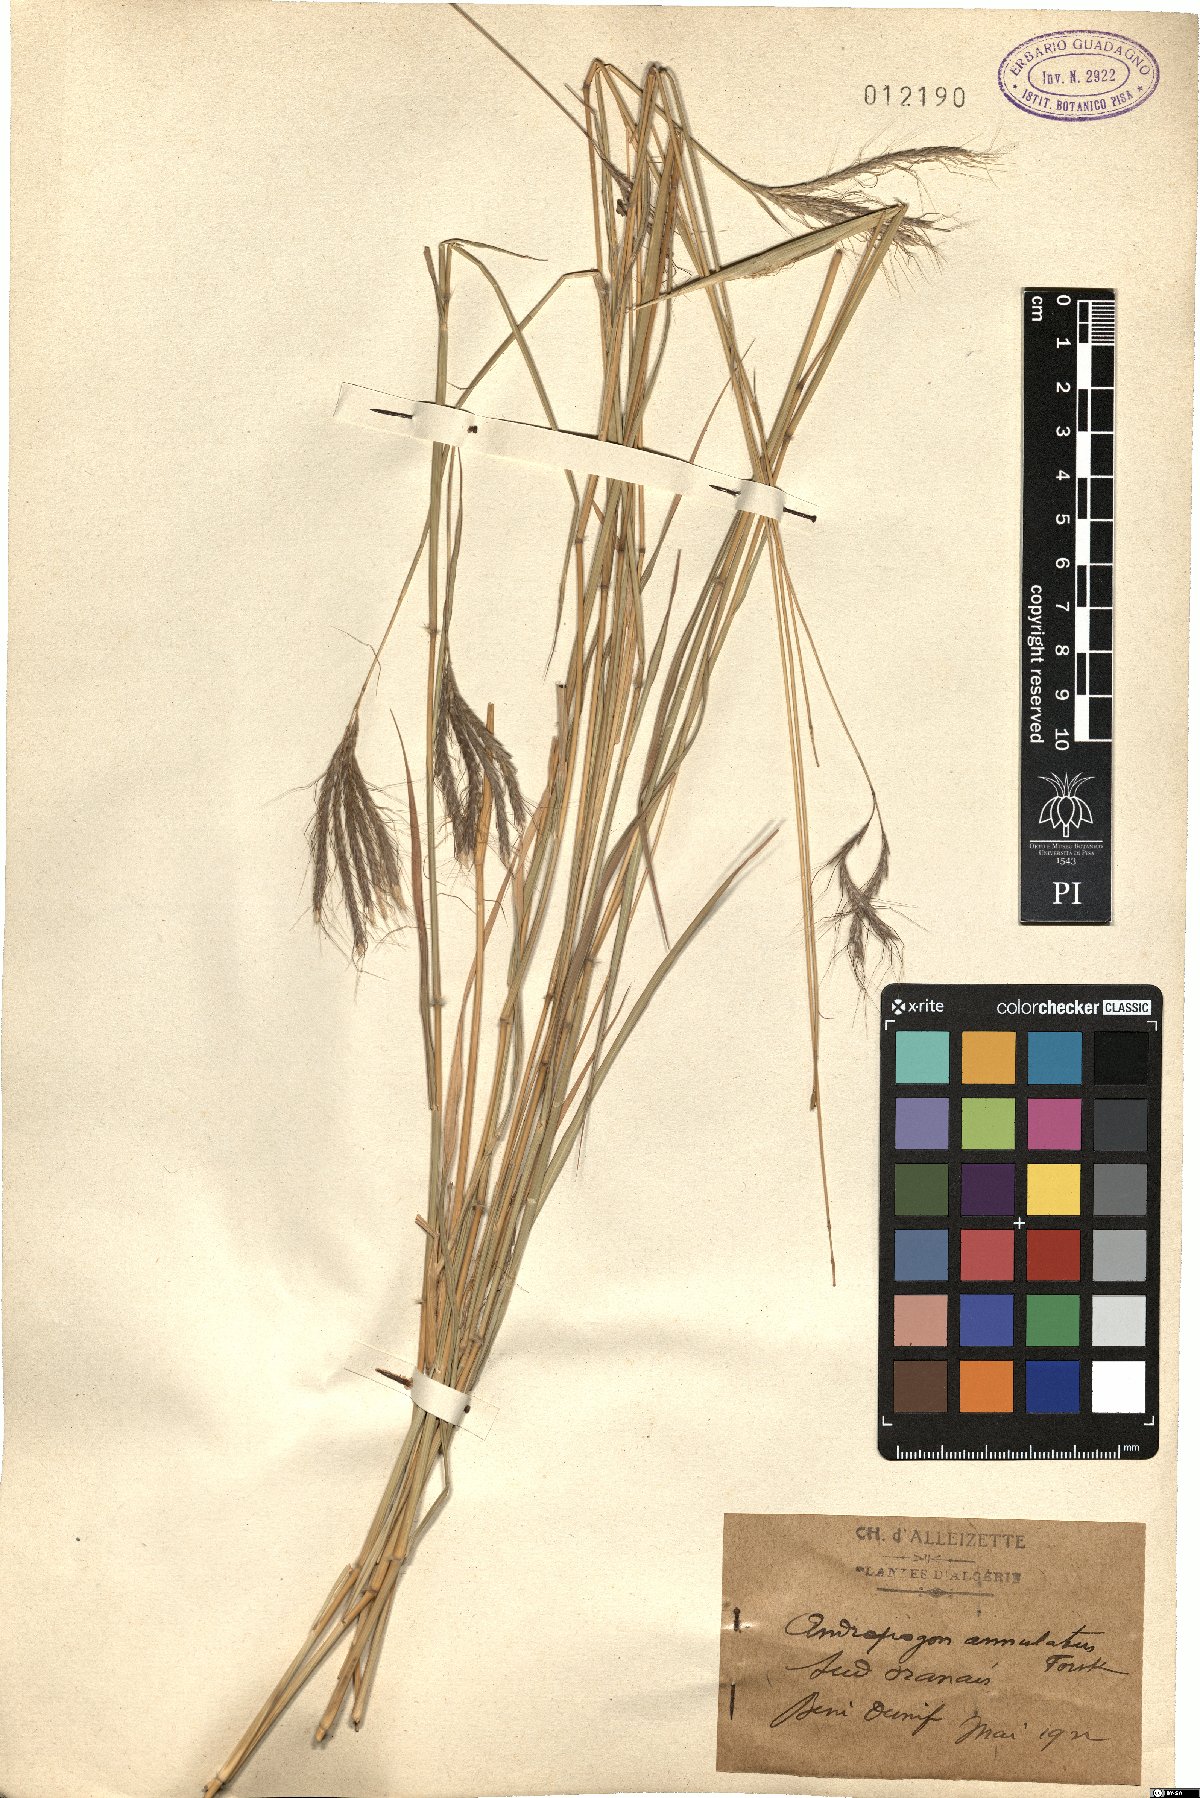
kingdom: Plantae
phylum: Tracheophyta
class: Liliopsida
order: Poales
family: Poaceae
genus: Dichanthium
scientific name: Dichanthium annulatum
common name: Kleberg's bluestem
